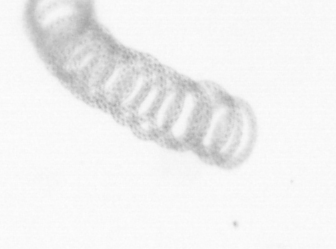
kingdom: Chromista
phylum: Ochrophyta
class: Bacillariophyceae
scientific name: Bacillariophyceae
